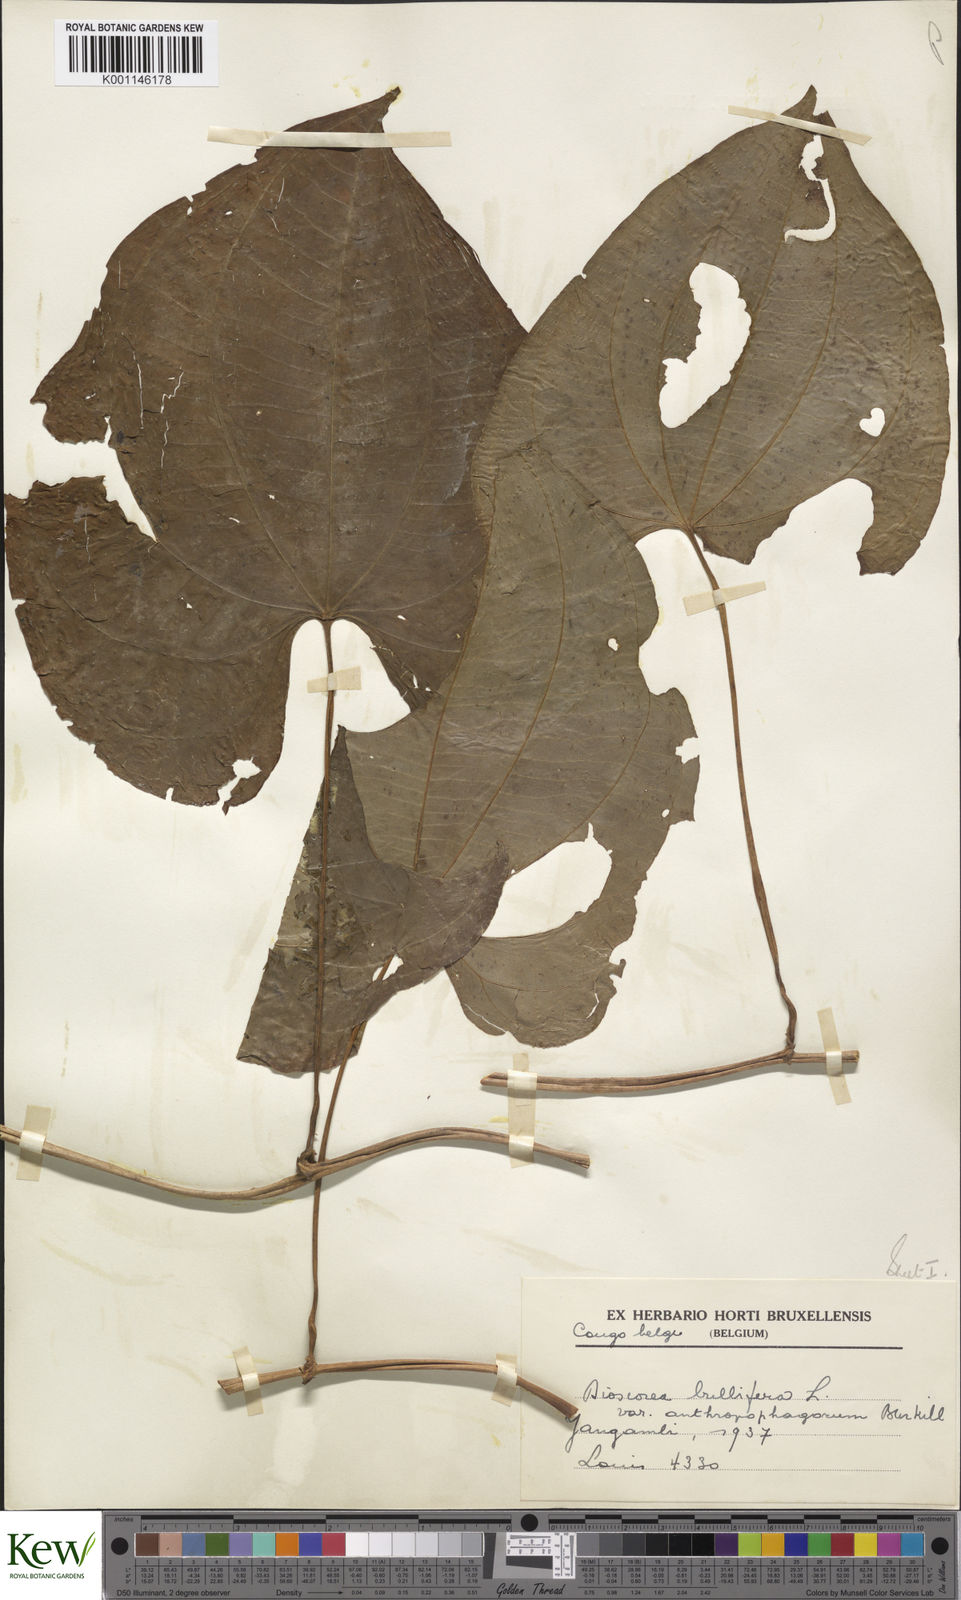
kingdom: Plantae
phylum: Tracheophyta
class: Liliopsida
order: Dioscoreales
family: Dioscoreaceae
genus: Dioscorea
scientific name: Dioscorea bulbifera
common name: Air yam
